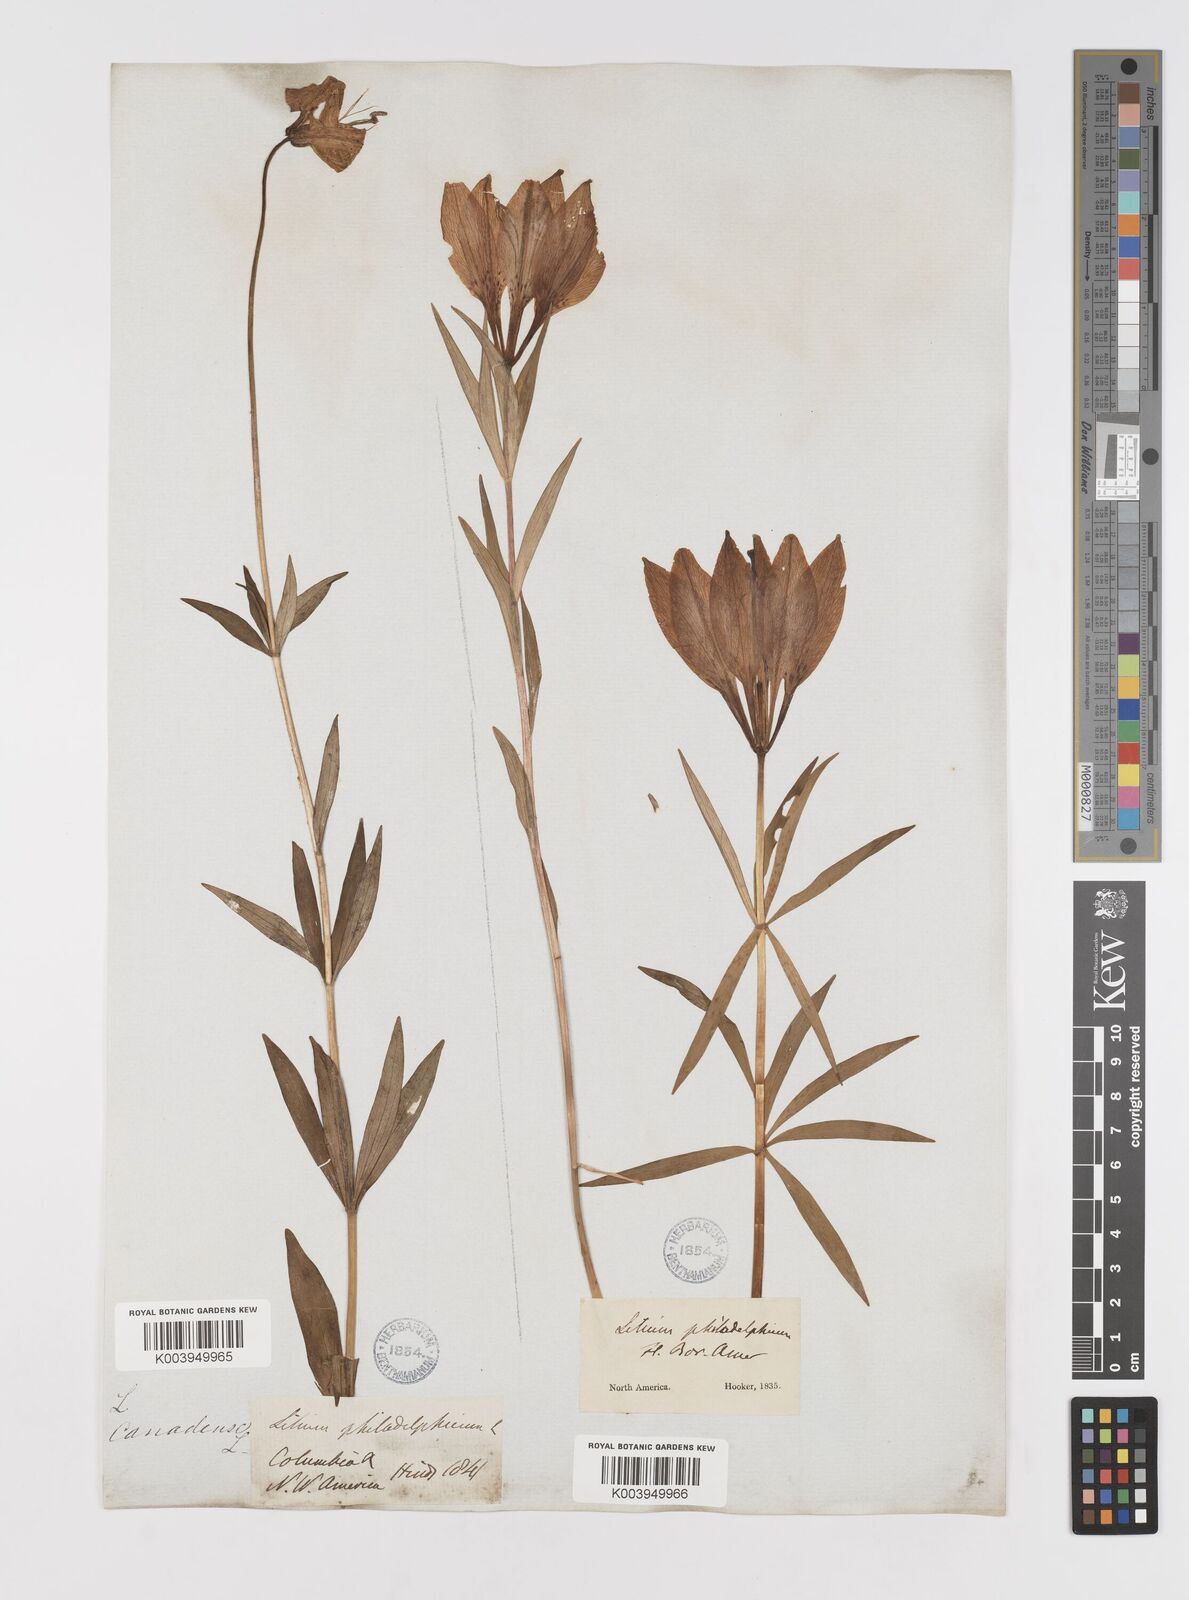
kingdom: Plantae
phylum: Tracheophyta
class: Liliopsida
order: Liliales
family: Liliaceae
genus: Lilium
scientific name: Lilium philadelphicum
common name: Red lily
